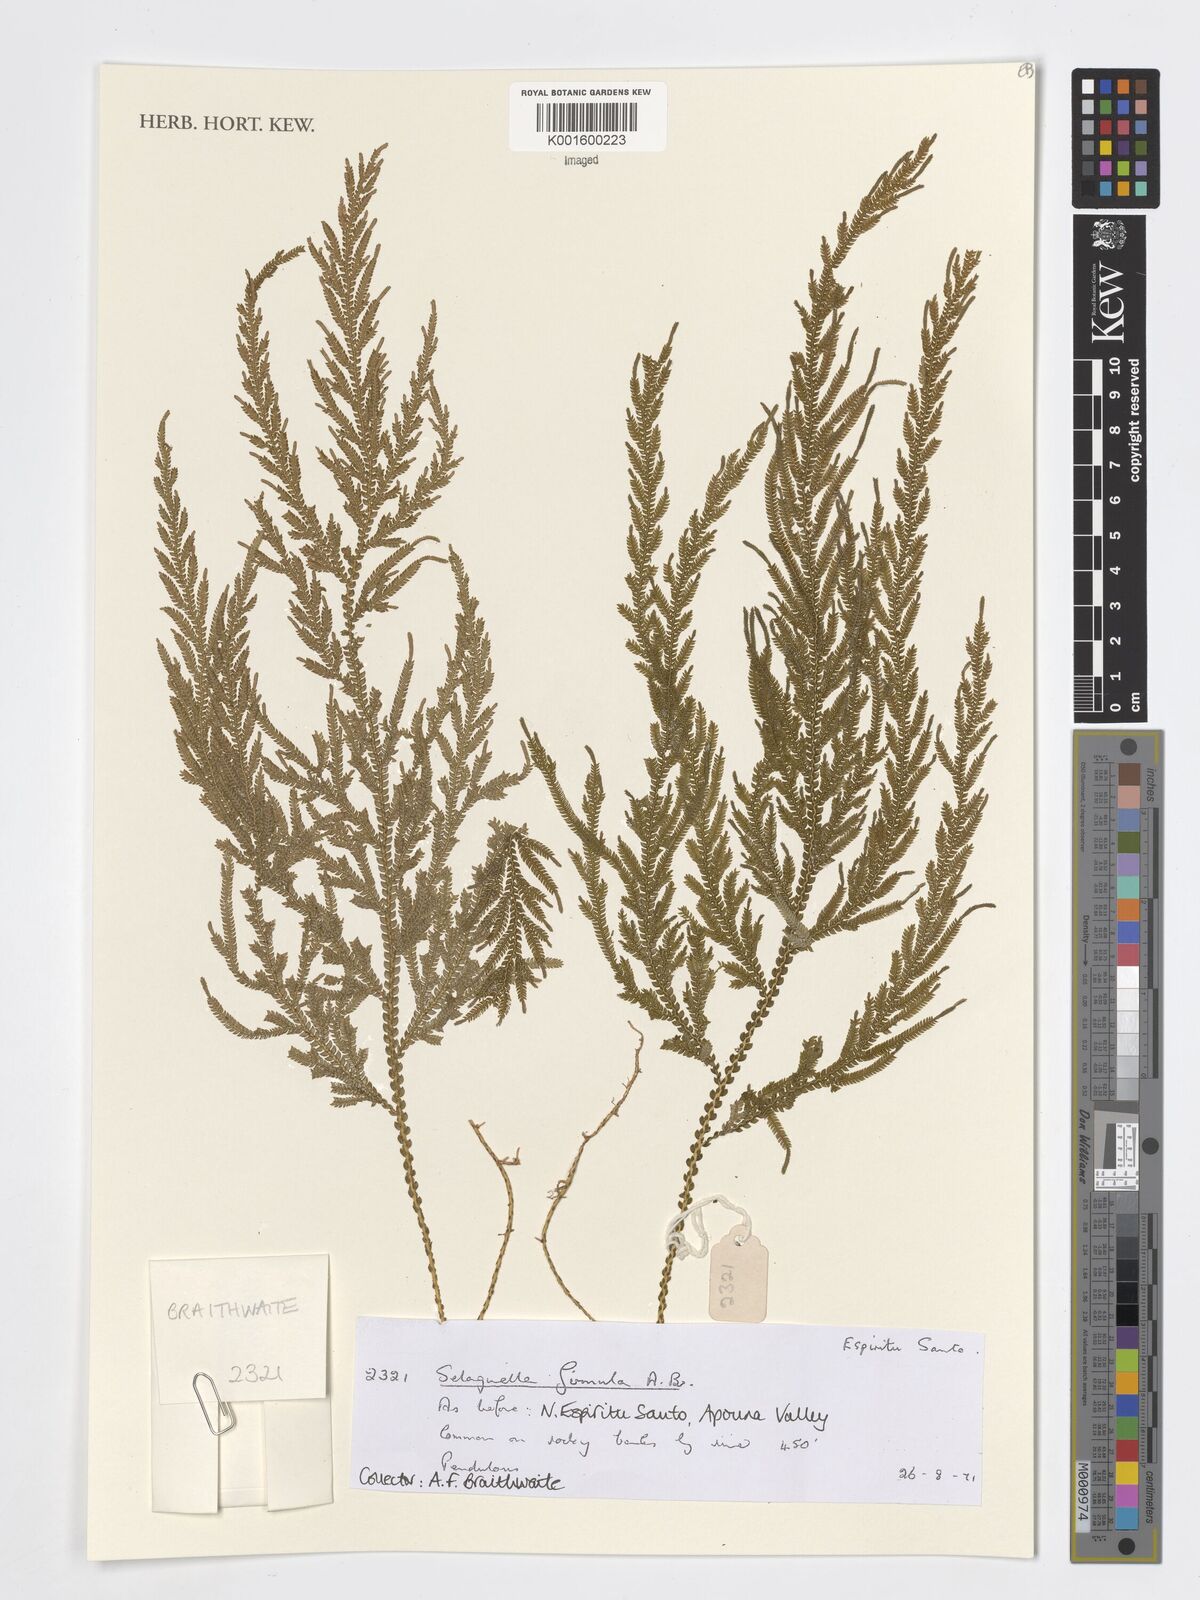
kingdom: Plantae
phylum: Tracheophyta
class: Lycopodiopsida
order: Selaginellales
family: Selaginellaceae
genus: Selaginella
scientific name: Selaginella firmula
